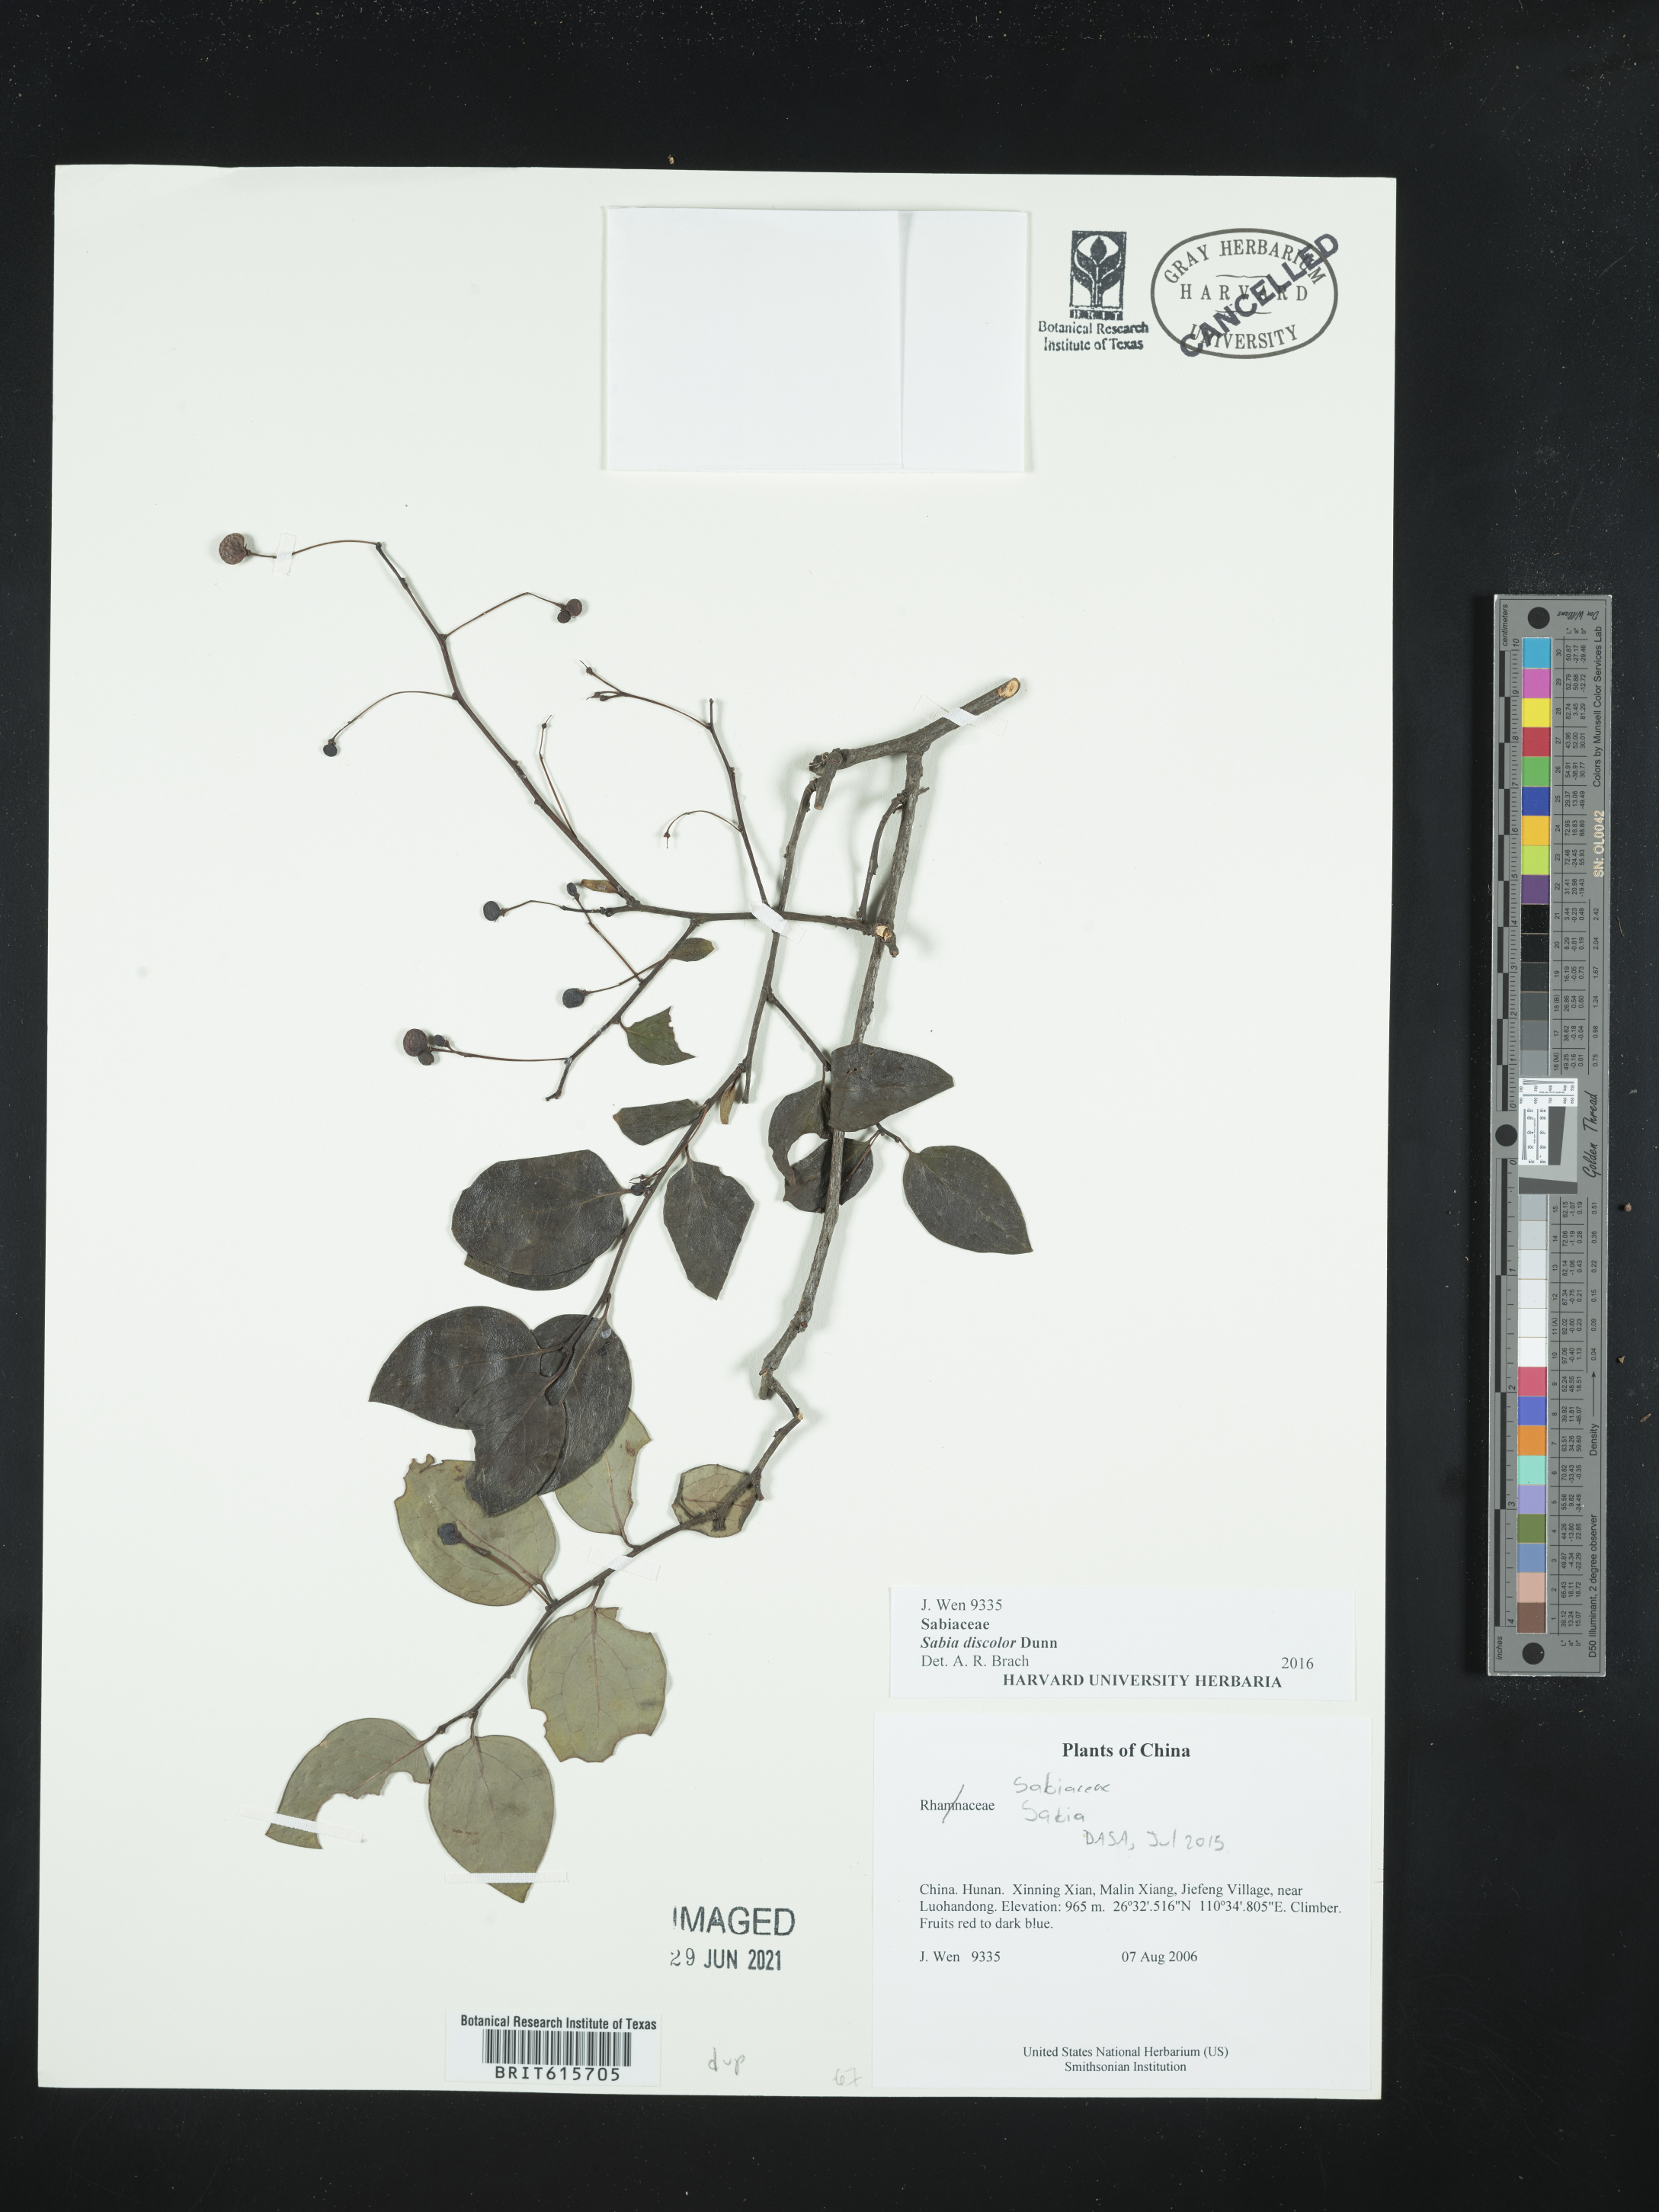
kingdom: Plantae
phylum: Tracheophyta
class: Magnoliopsida
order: Proteales
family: Sabiaceae
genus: Sabia
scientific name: Sabia discolor
